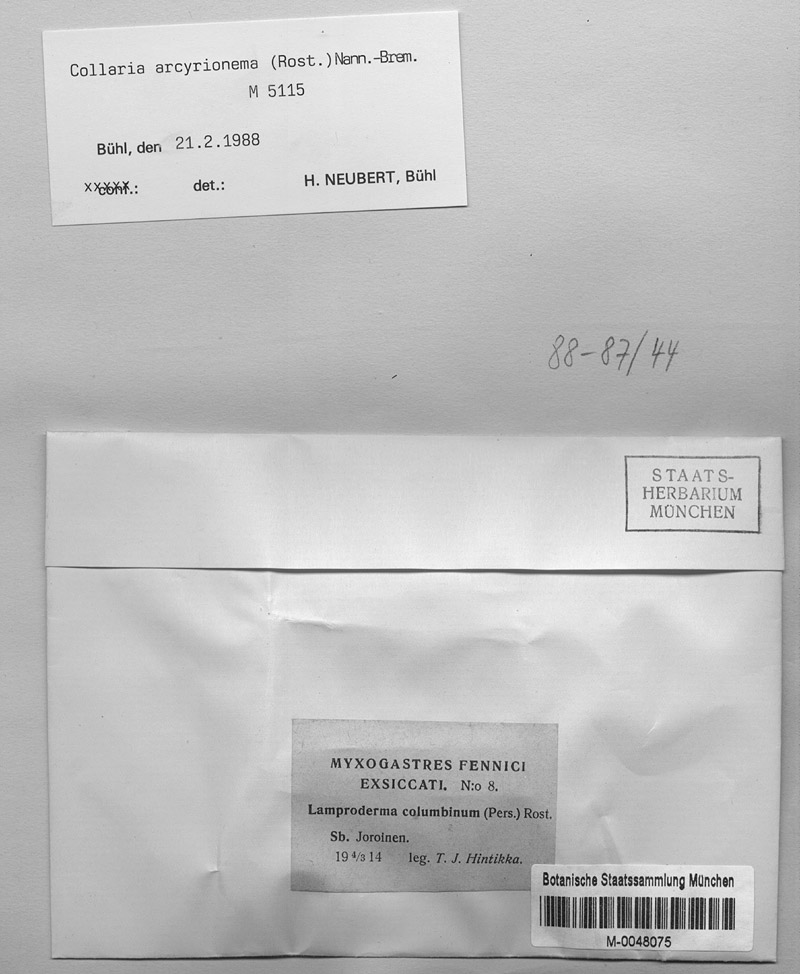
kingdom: Protozoa
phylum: Mycetozoa
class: Myxomycetes
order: Stemonitidales
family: Stemonitidaceae
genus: Collaria
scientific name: Collaria arcyrionema
